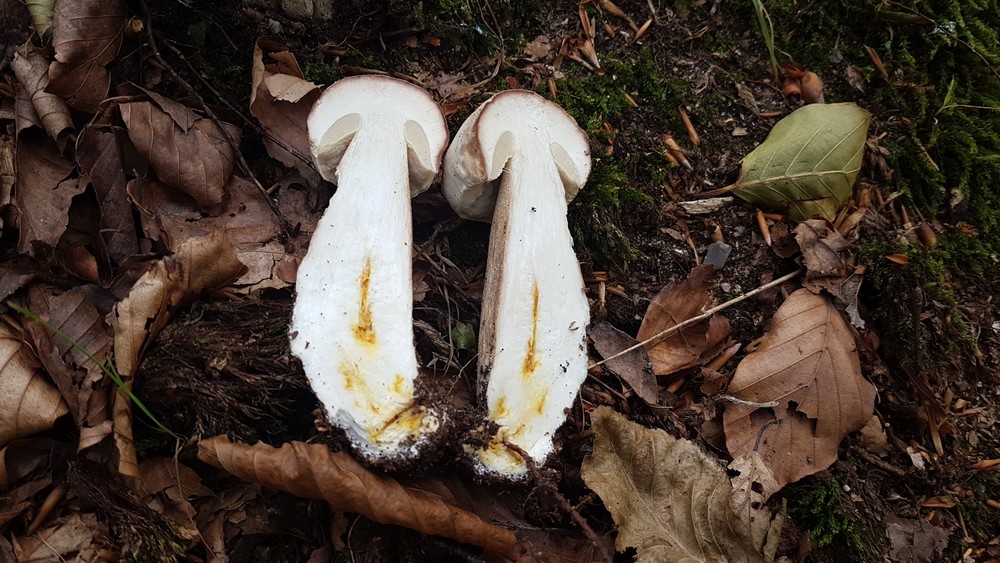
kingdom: Fungi
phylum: Basidiomycota
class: Agaricomycetes
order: Boletales
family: Boletaceae
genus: Boletus
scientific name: Boletus reticulatus
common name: sommer-rørhat
